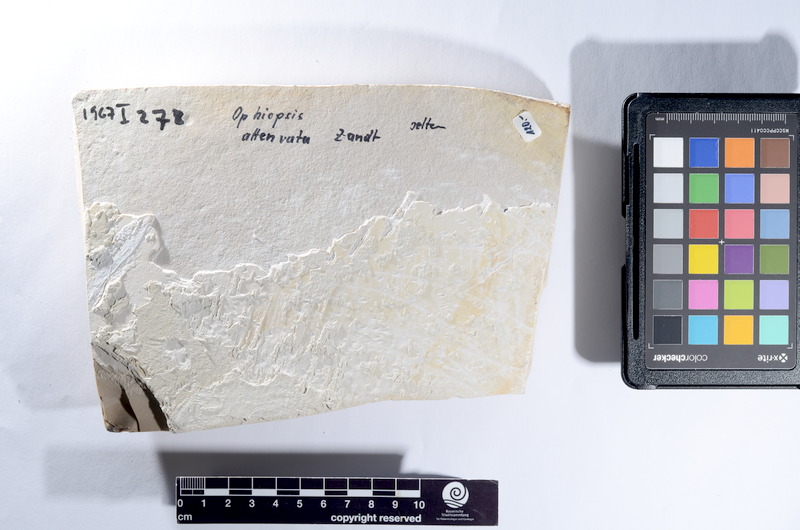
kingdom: Animalia
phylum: Chordata
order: Lepisosteiformes
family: Lepidotidae
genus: Lepidotes
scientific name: Lepidotes subovatus
